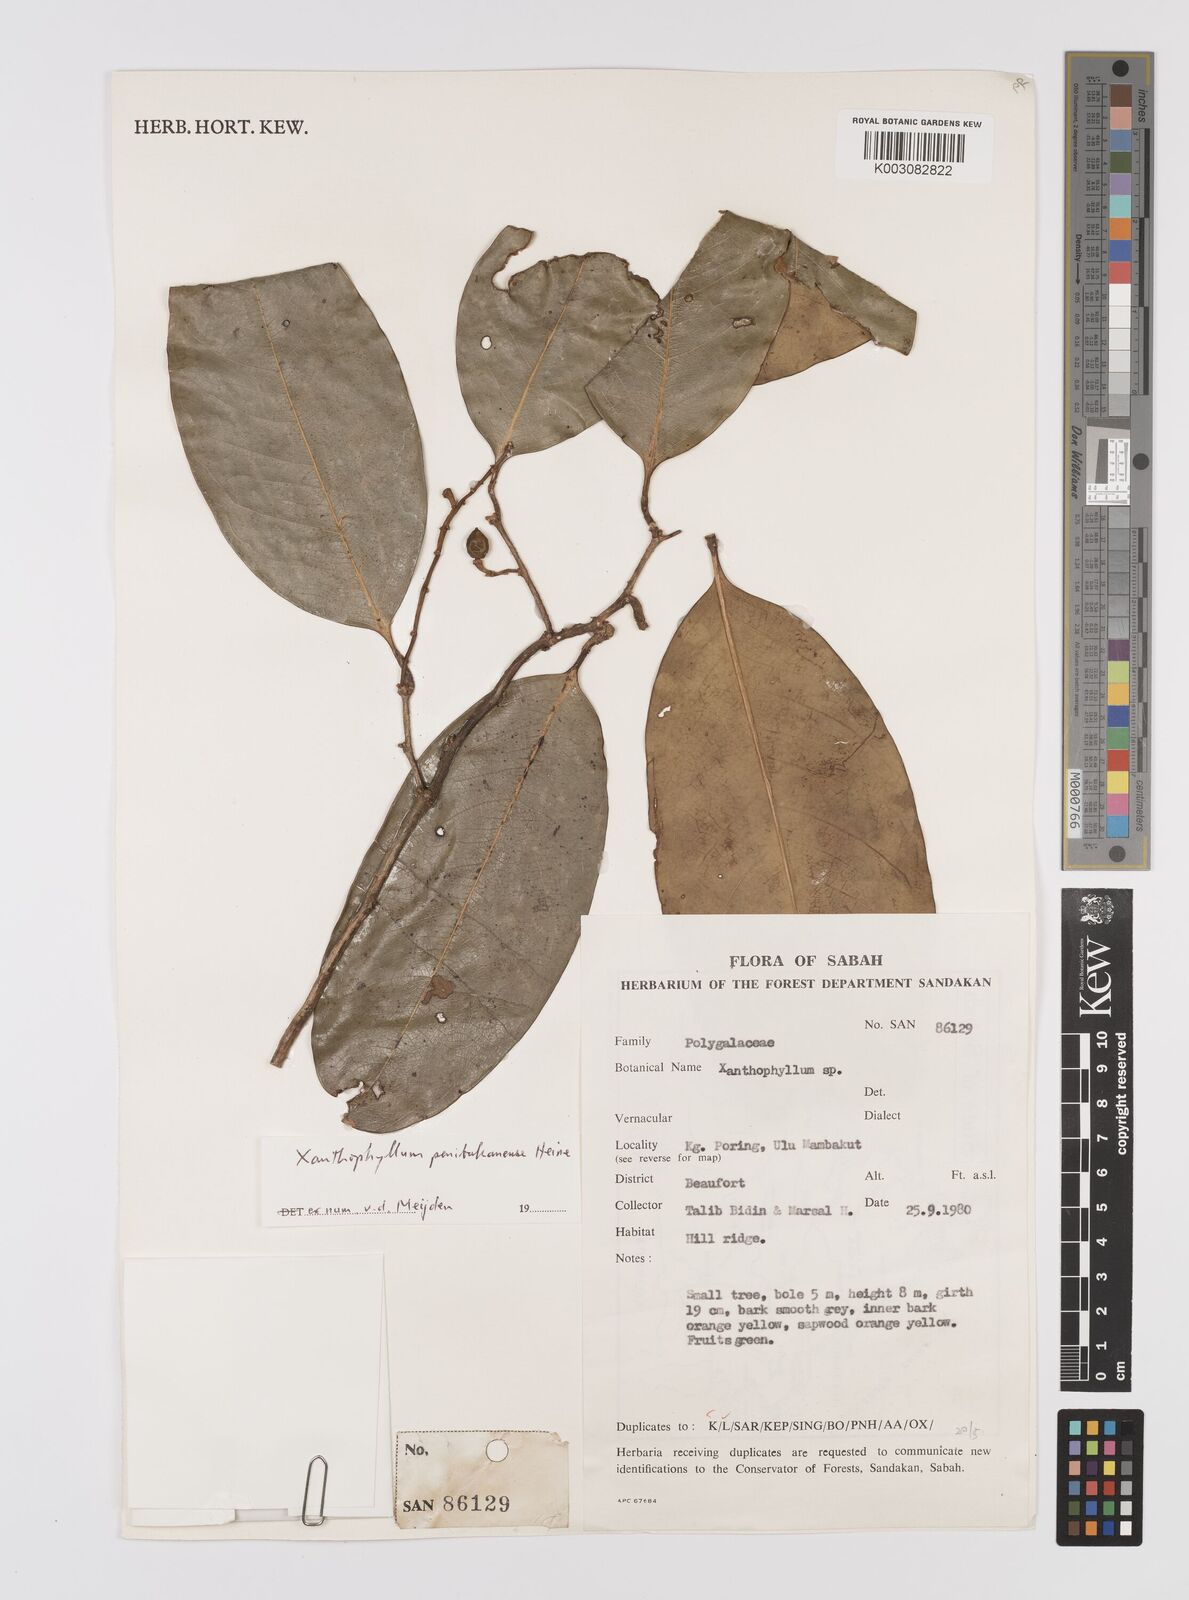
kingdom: Plantae
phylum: Tracheophyta
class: Magnoliopsida
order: Fabales
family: Polygalaceae
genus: Xanthophyllum
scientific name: Xanthophyllum penibukanense
